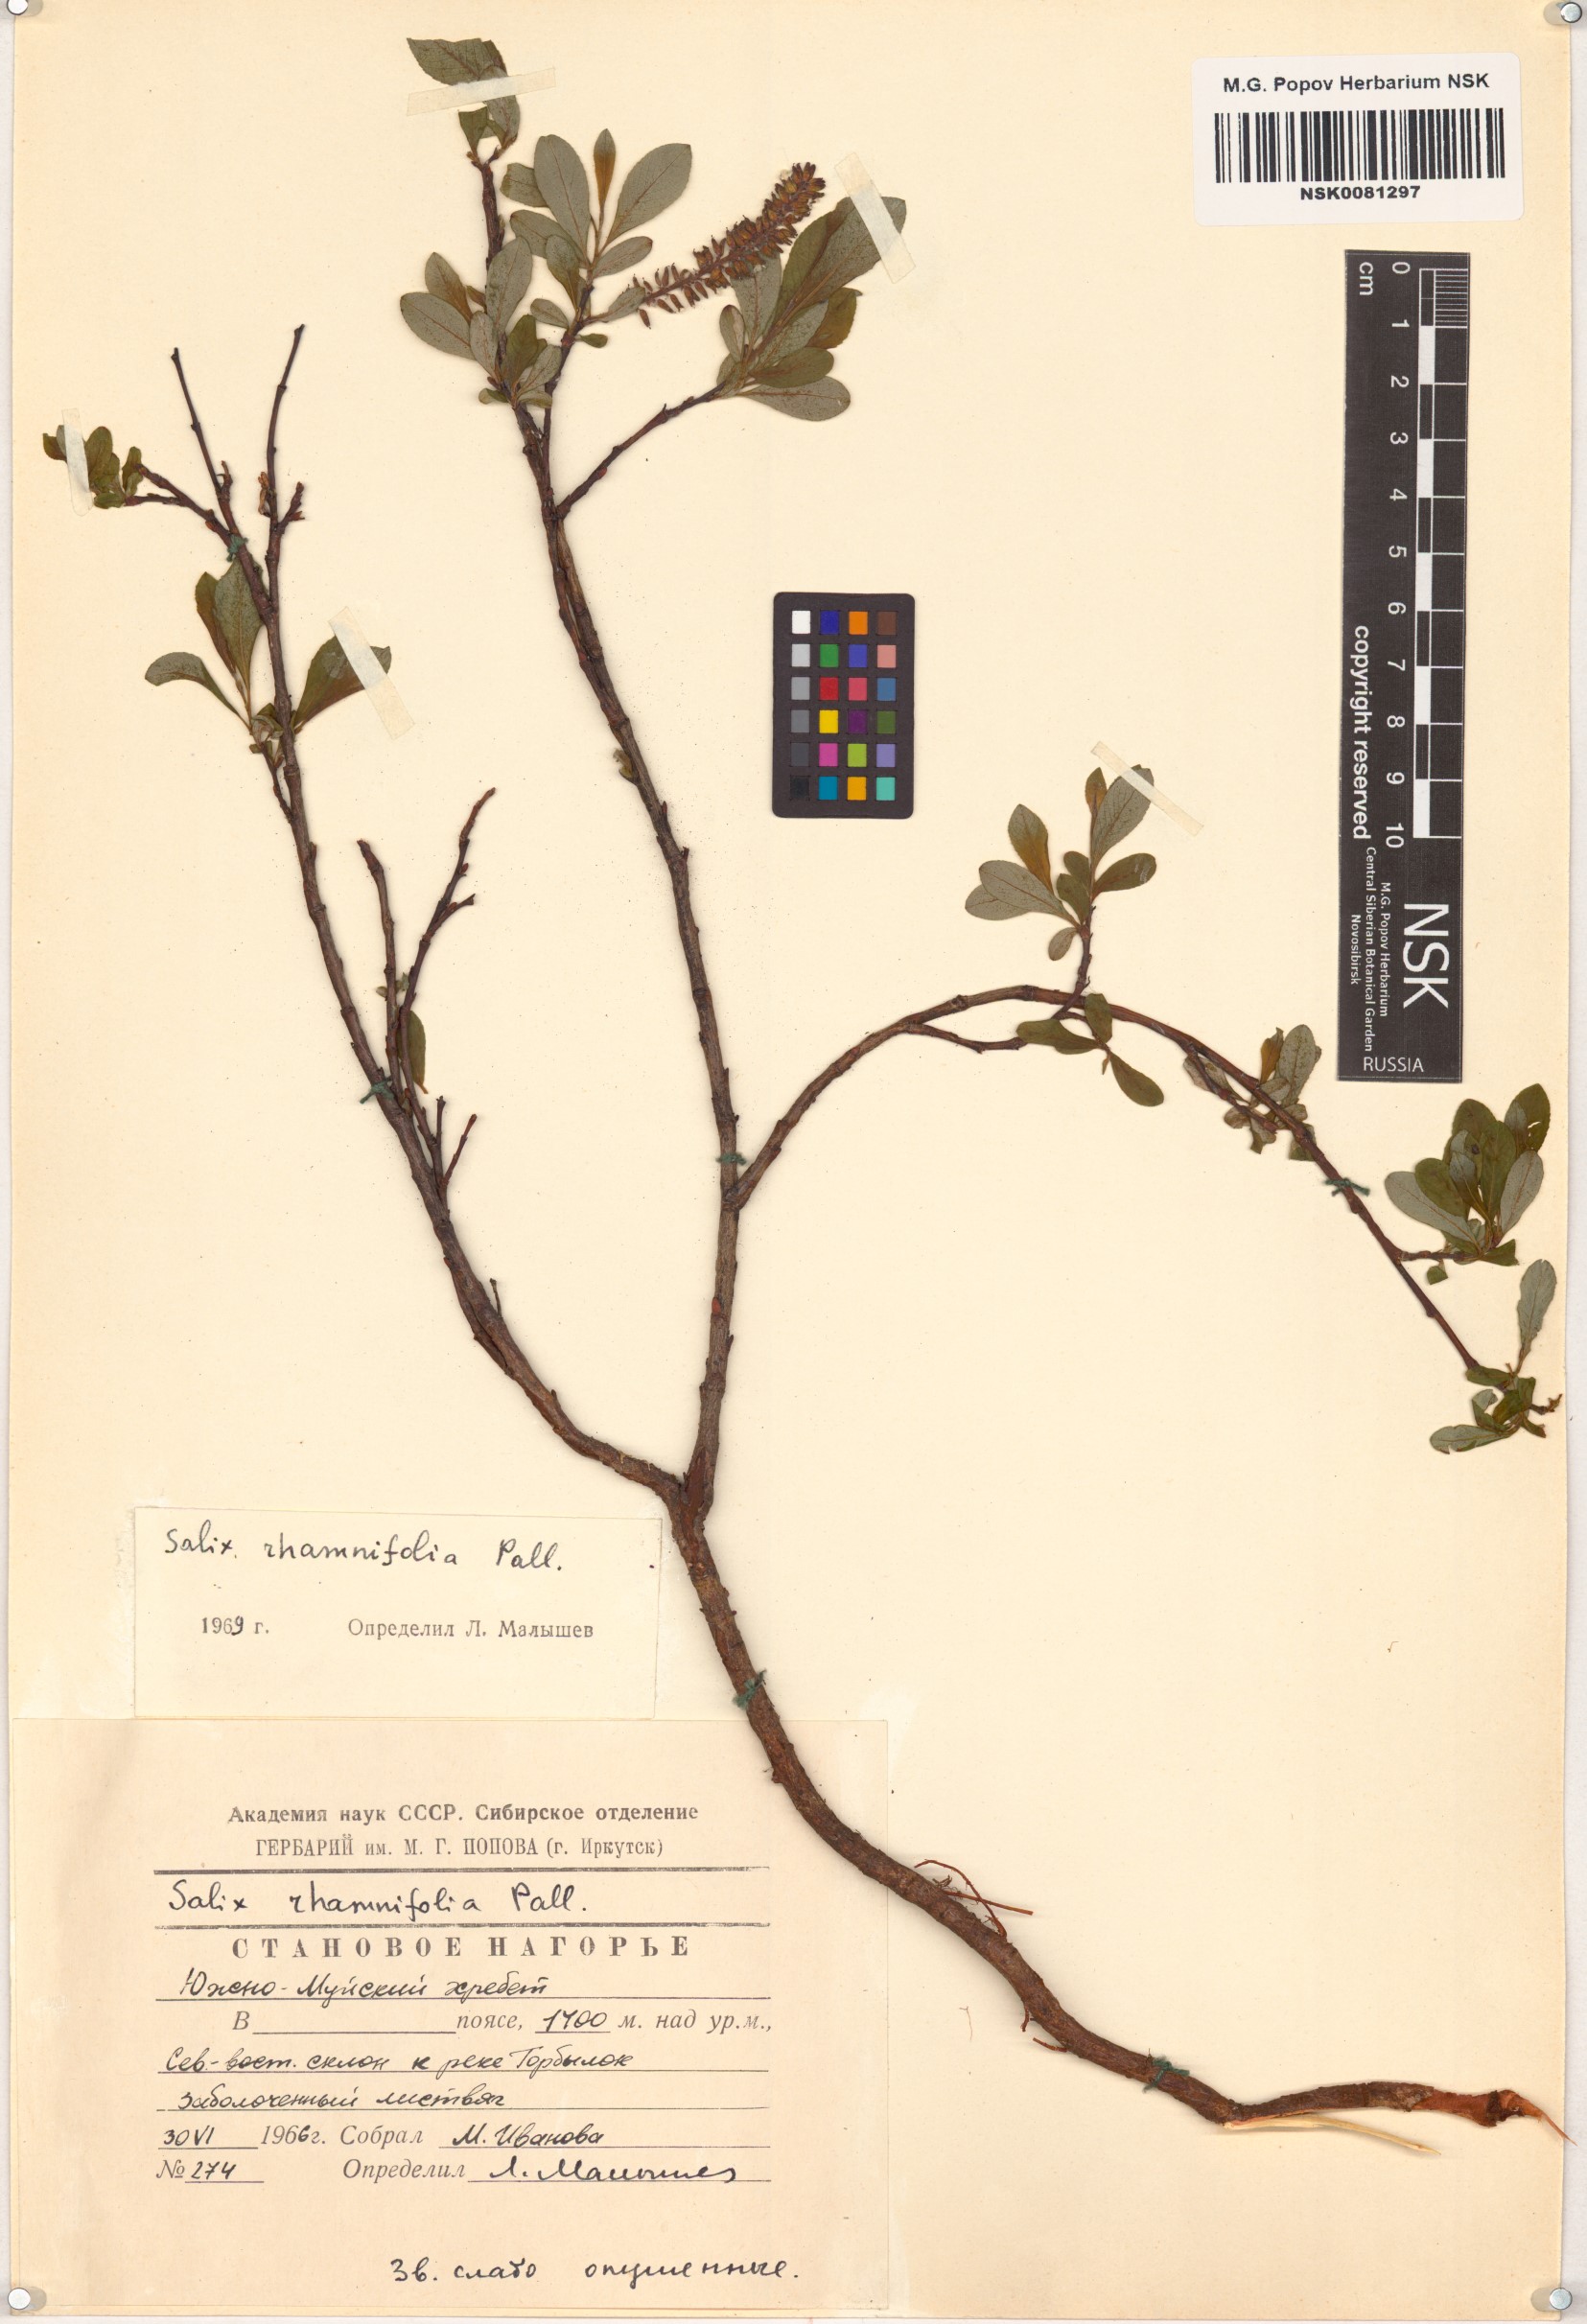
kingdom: Plantae
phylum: Tracheophyta
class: Magnoliopsida
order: Malpighiales
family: Salicaceae
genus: Salix
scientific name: Salix rhamnifolia
